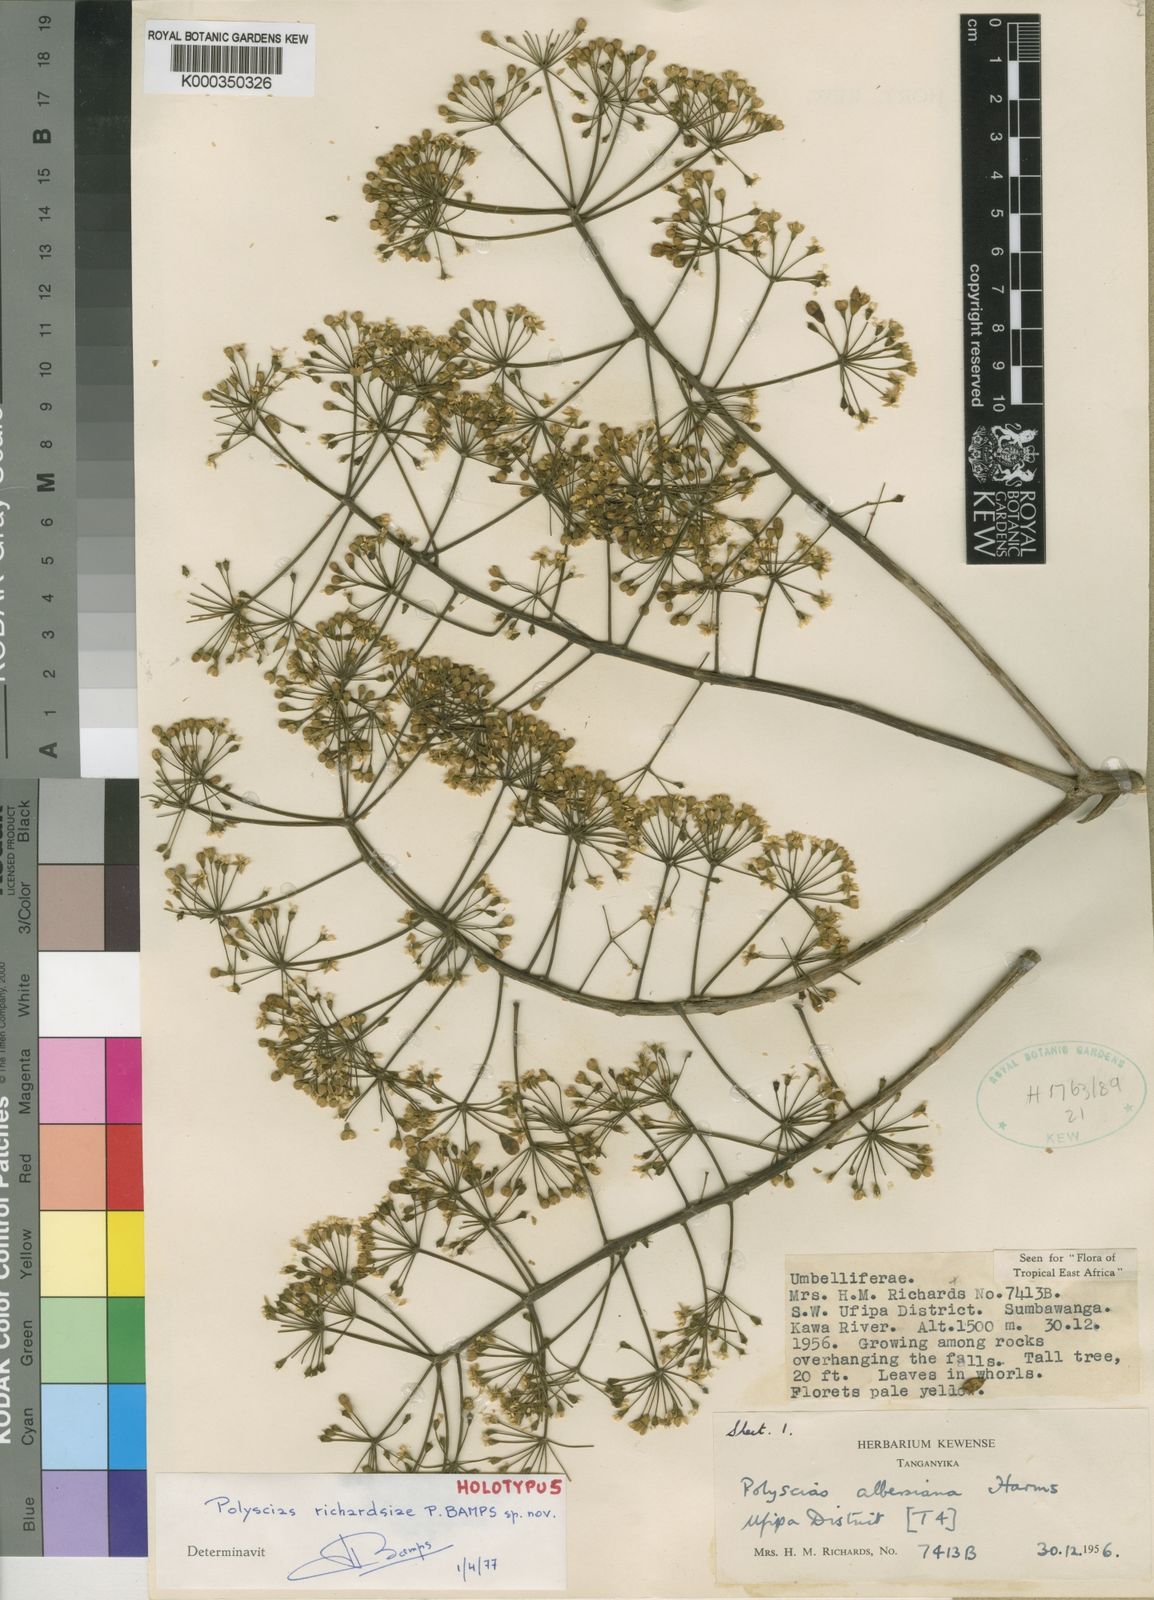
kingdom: Plantae
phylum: Tracheophyta
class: Magnoliopsida
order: Apiales
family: Araliaceae
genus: Polyscias
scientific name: Polyscias richardsiae
